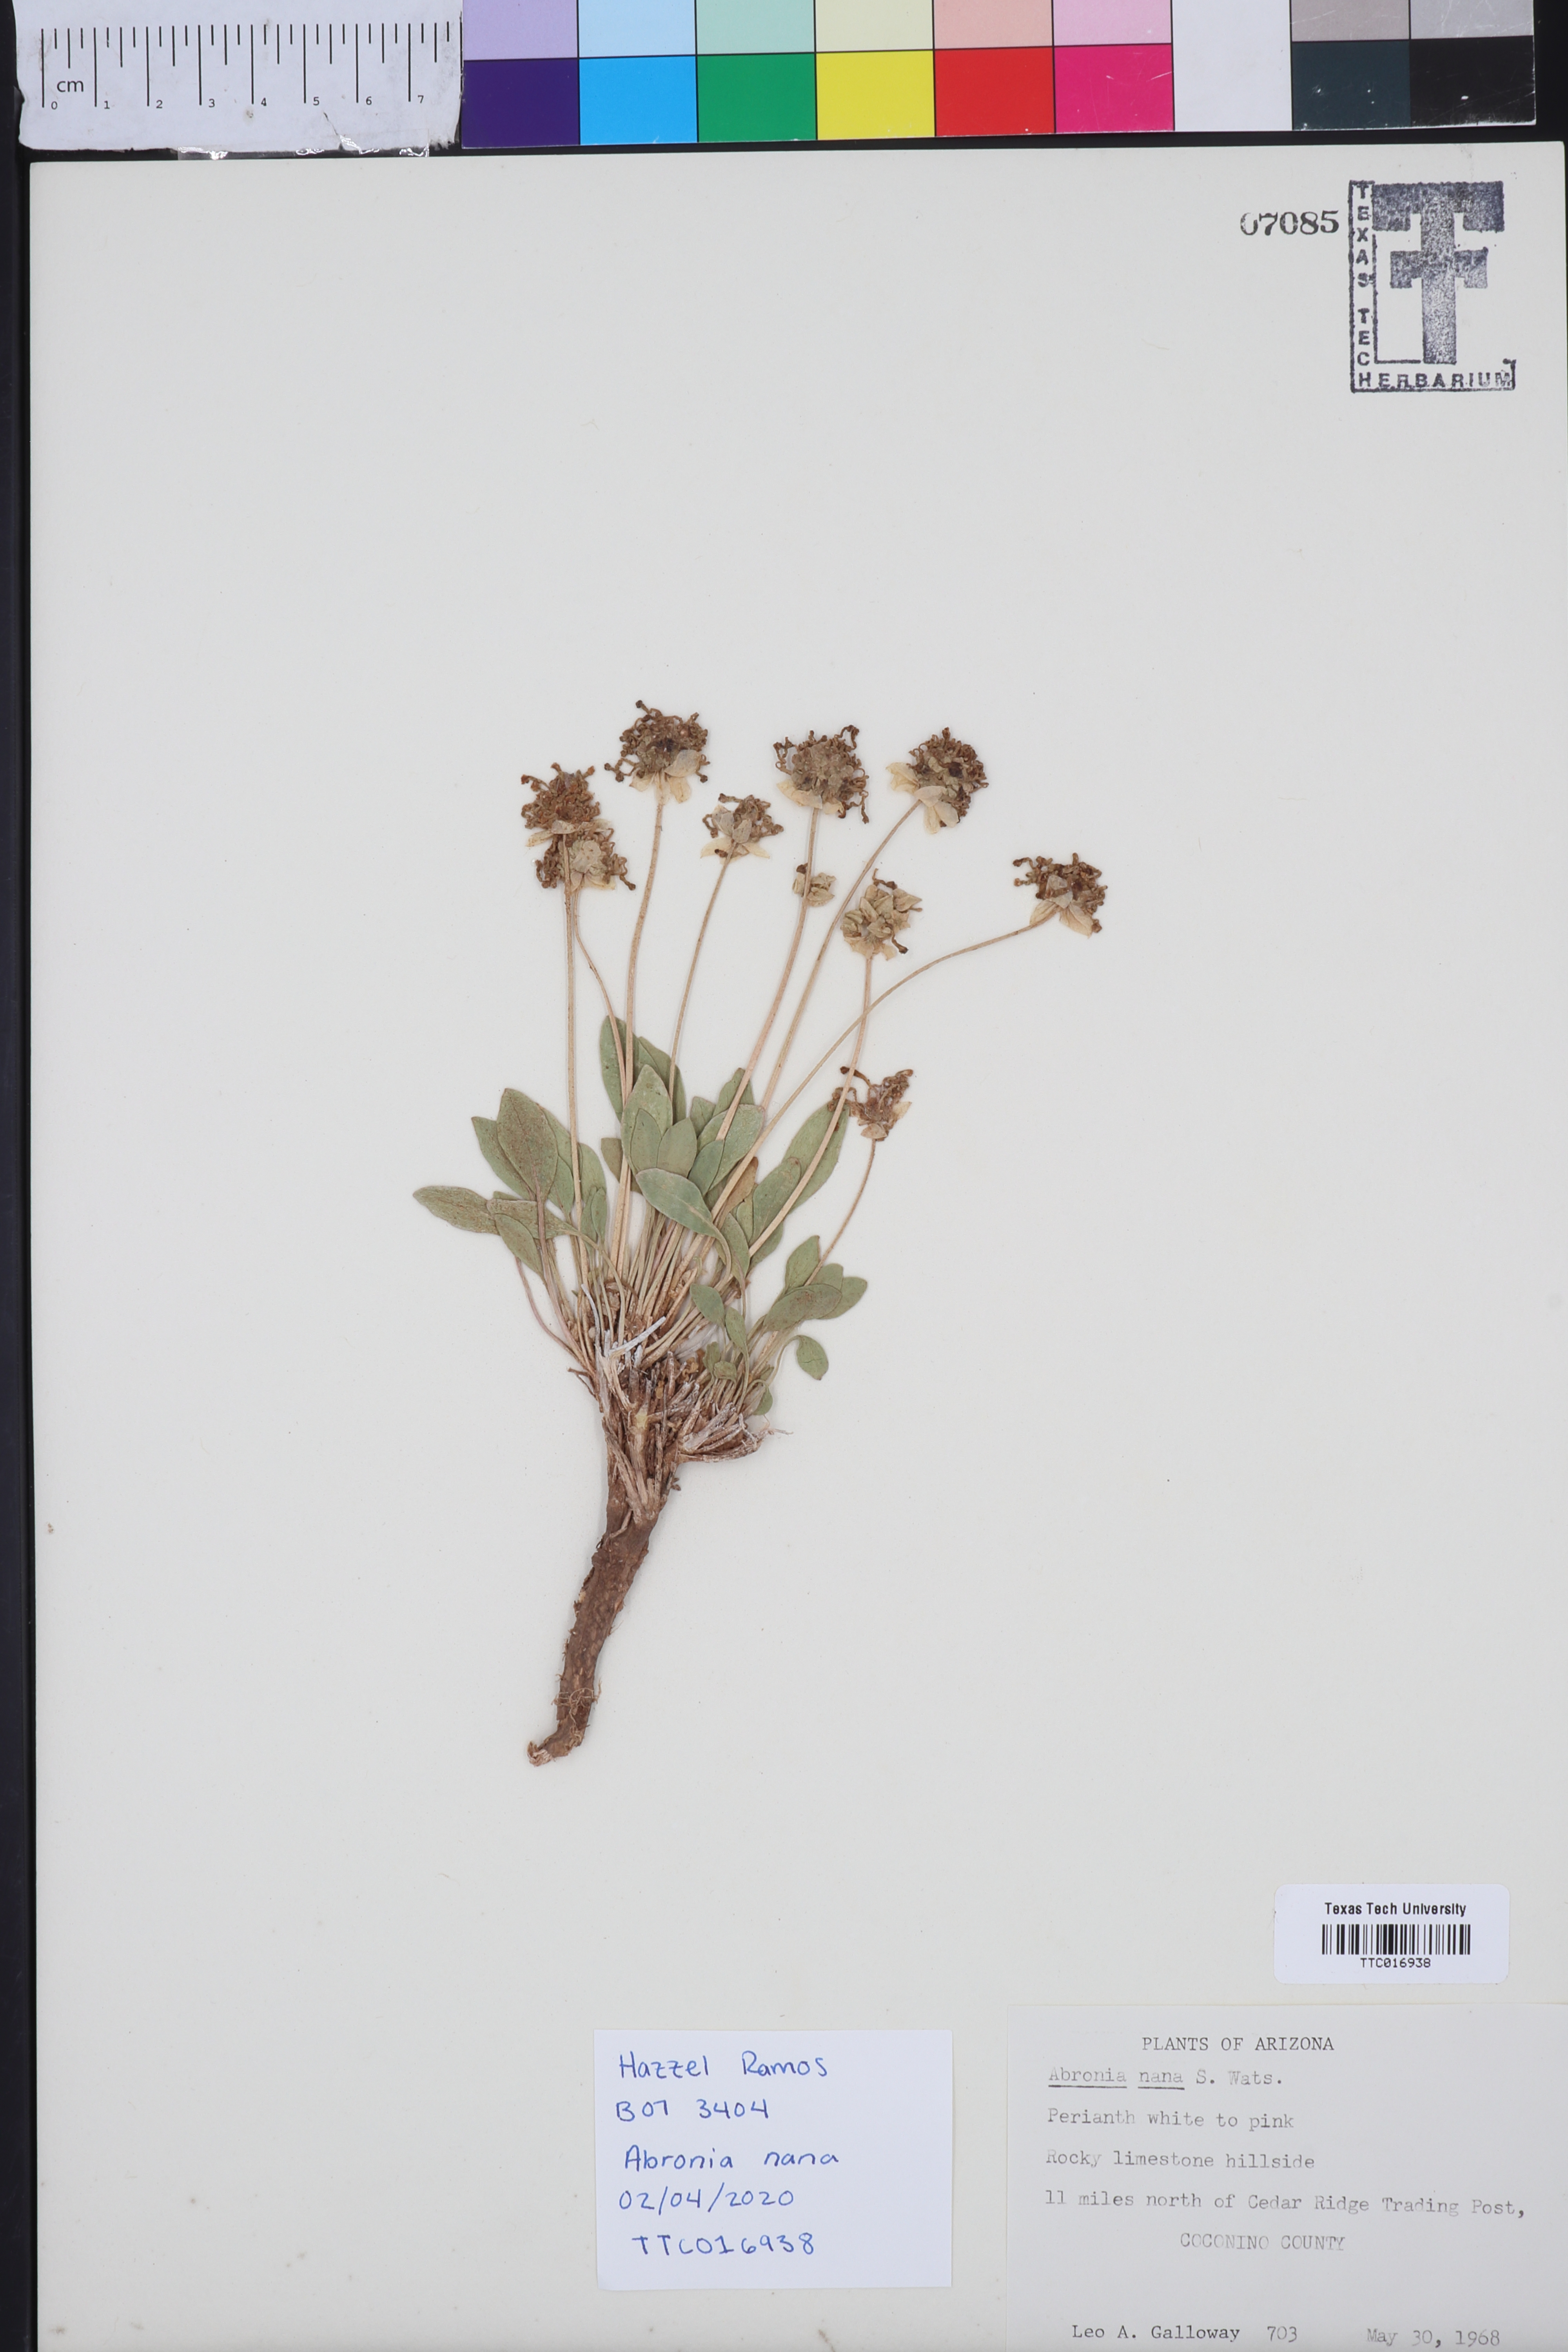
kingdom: Plantae
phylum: Tracheophyta
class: Magnoliopsida
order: Caryophyllales
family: Nyctaginaceae
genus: Abronia
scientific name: Abronia nana
